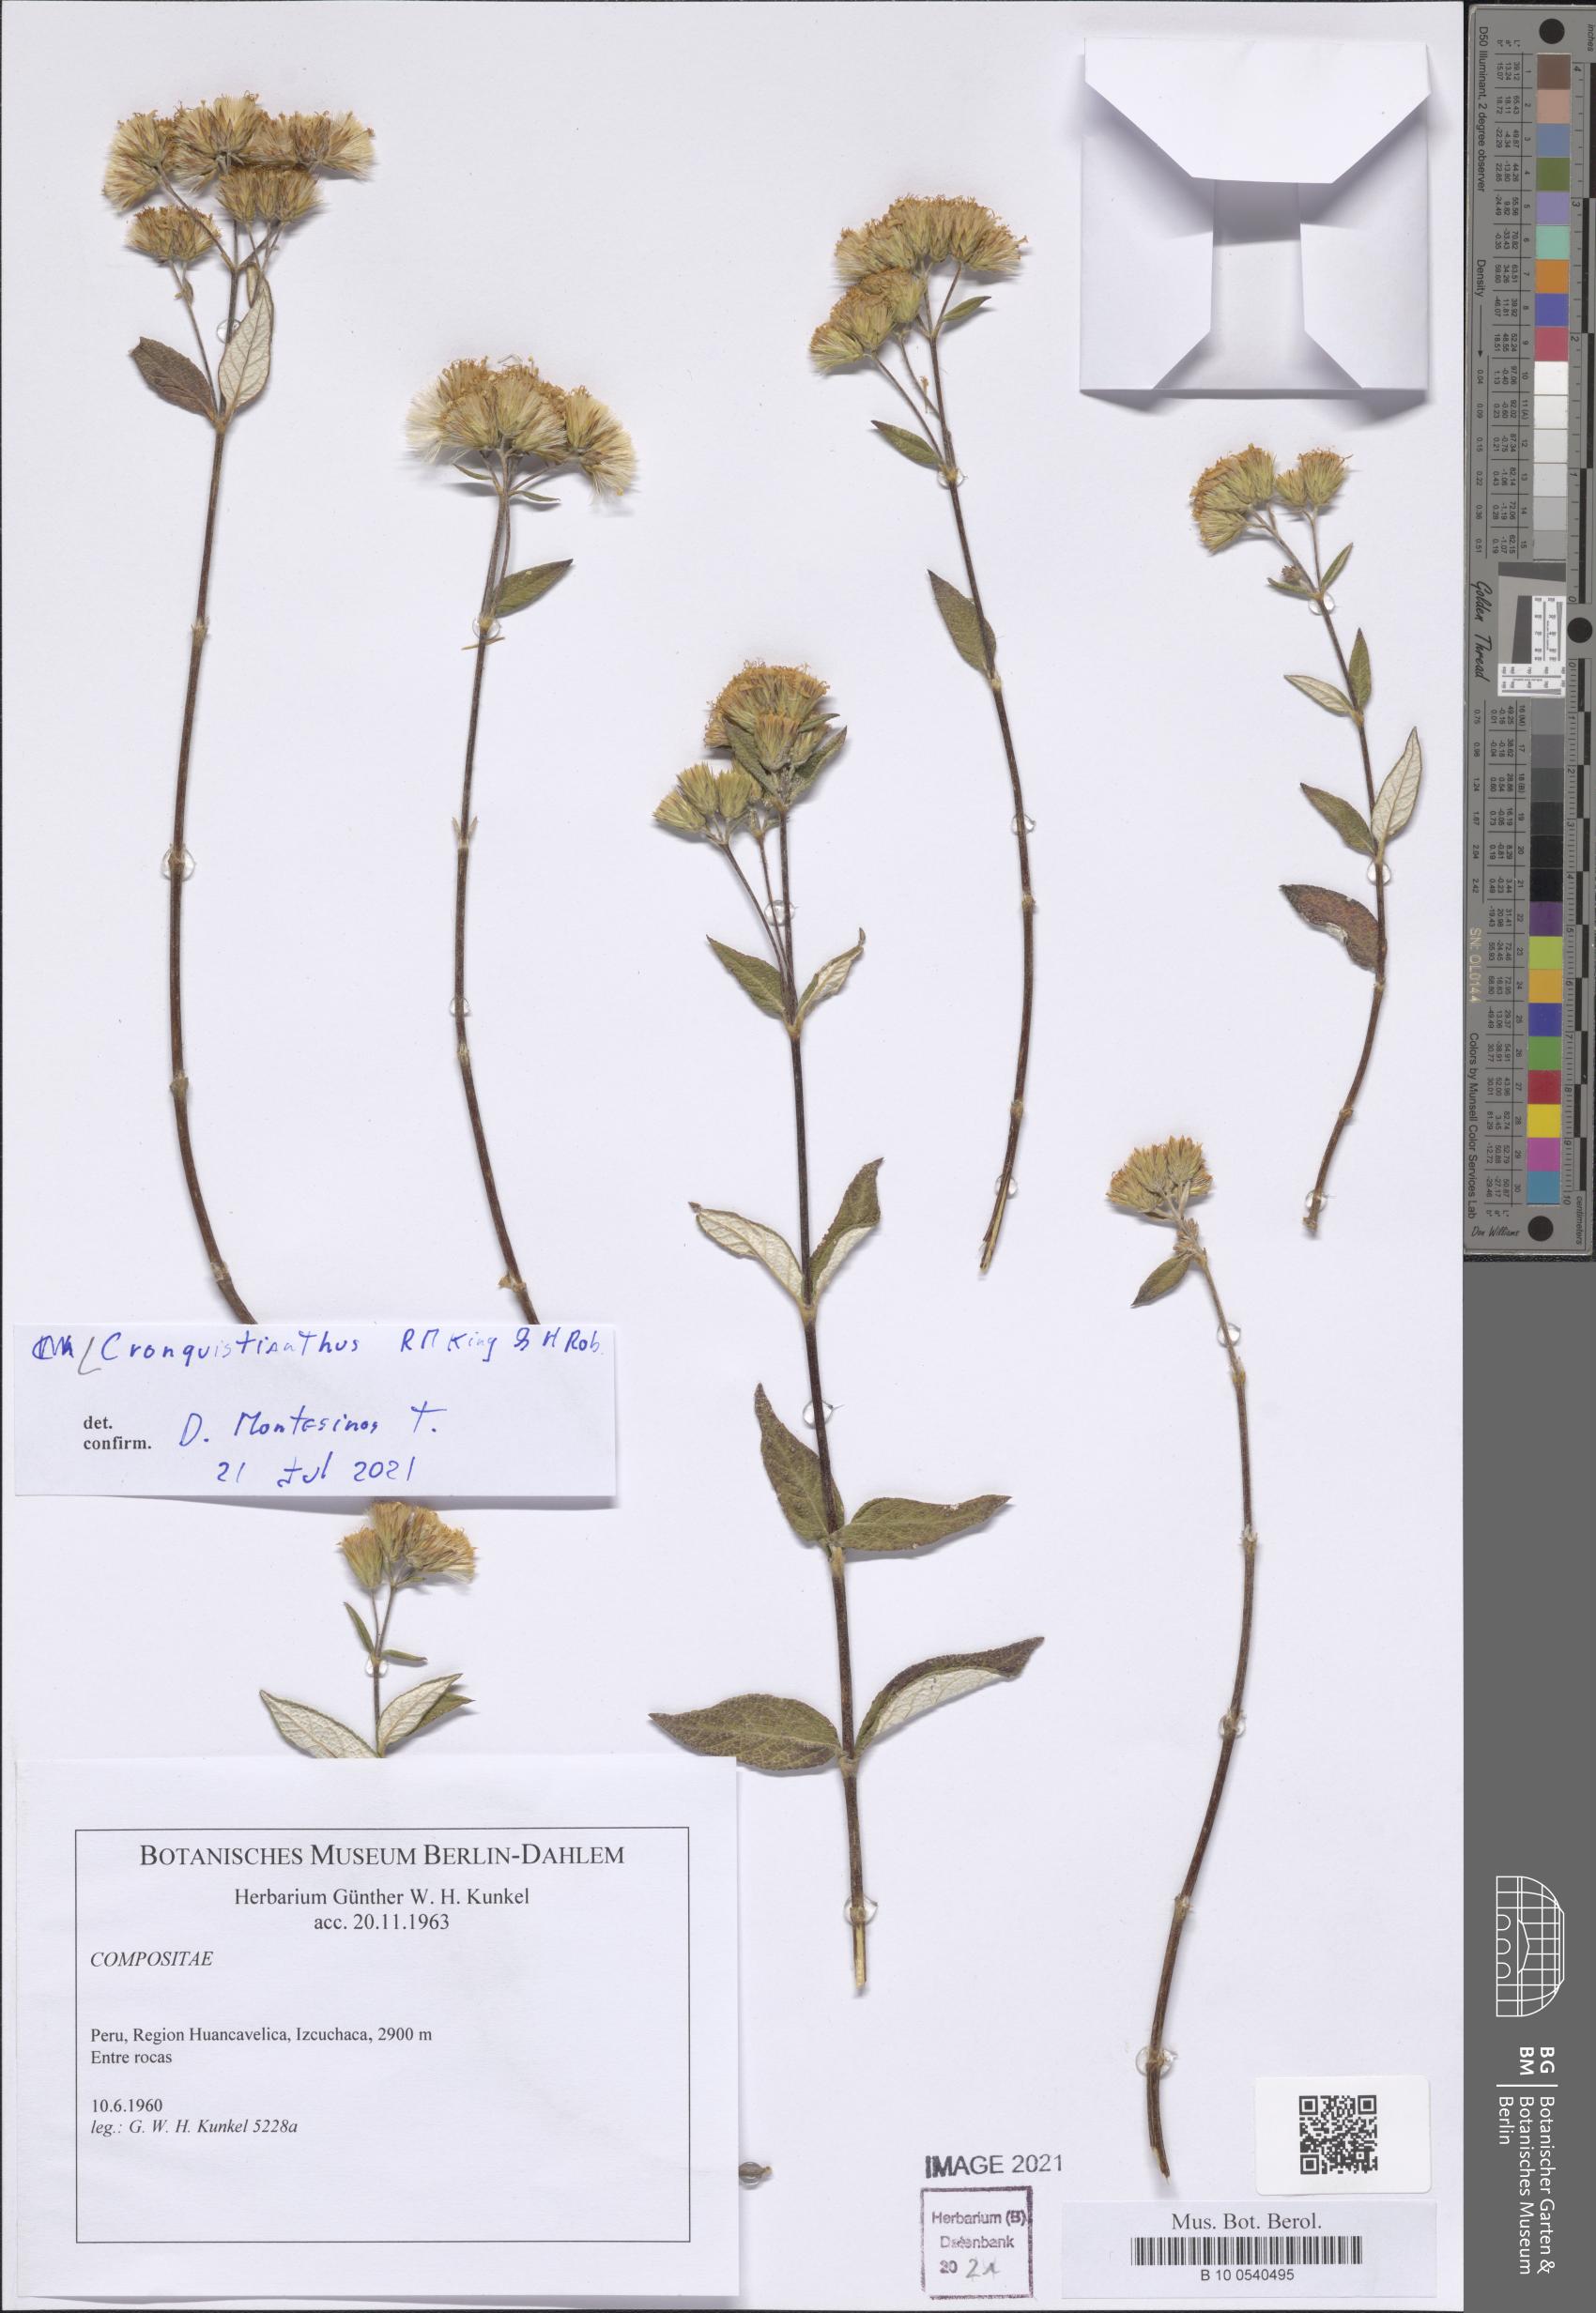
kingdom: Plantae
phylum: Tracheophyta
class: Magnoliopsida
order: Asterales
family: Asteraceae
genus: Cronquistianthus
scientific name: Cronquistianthus
